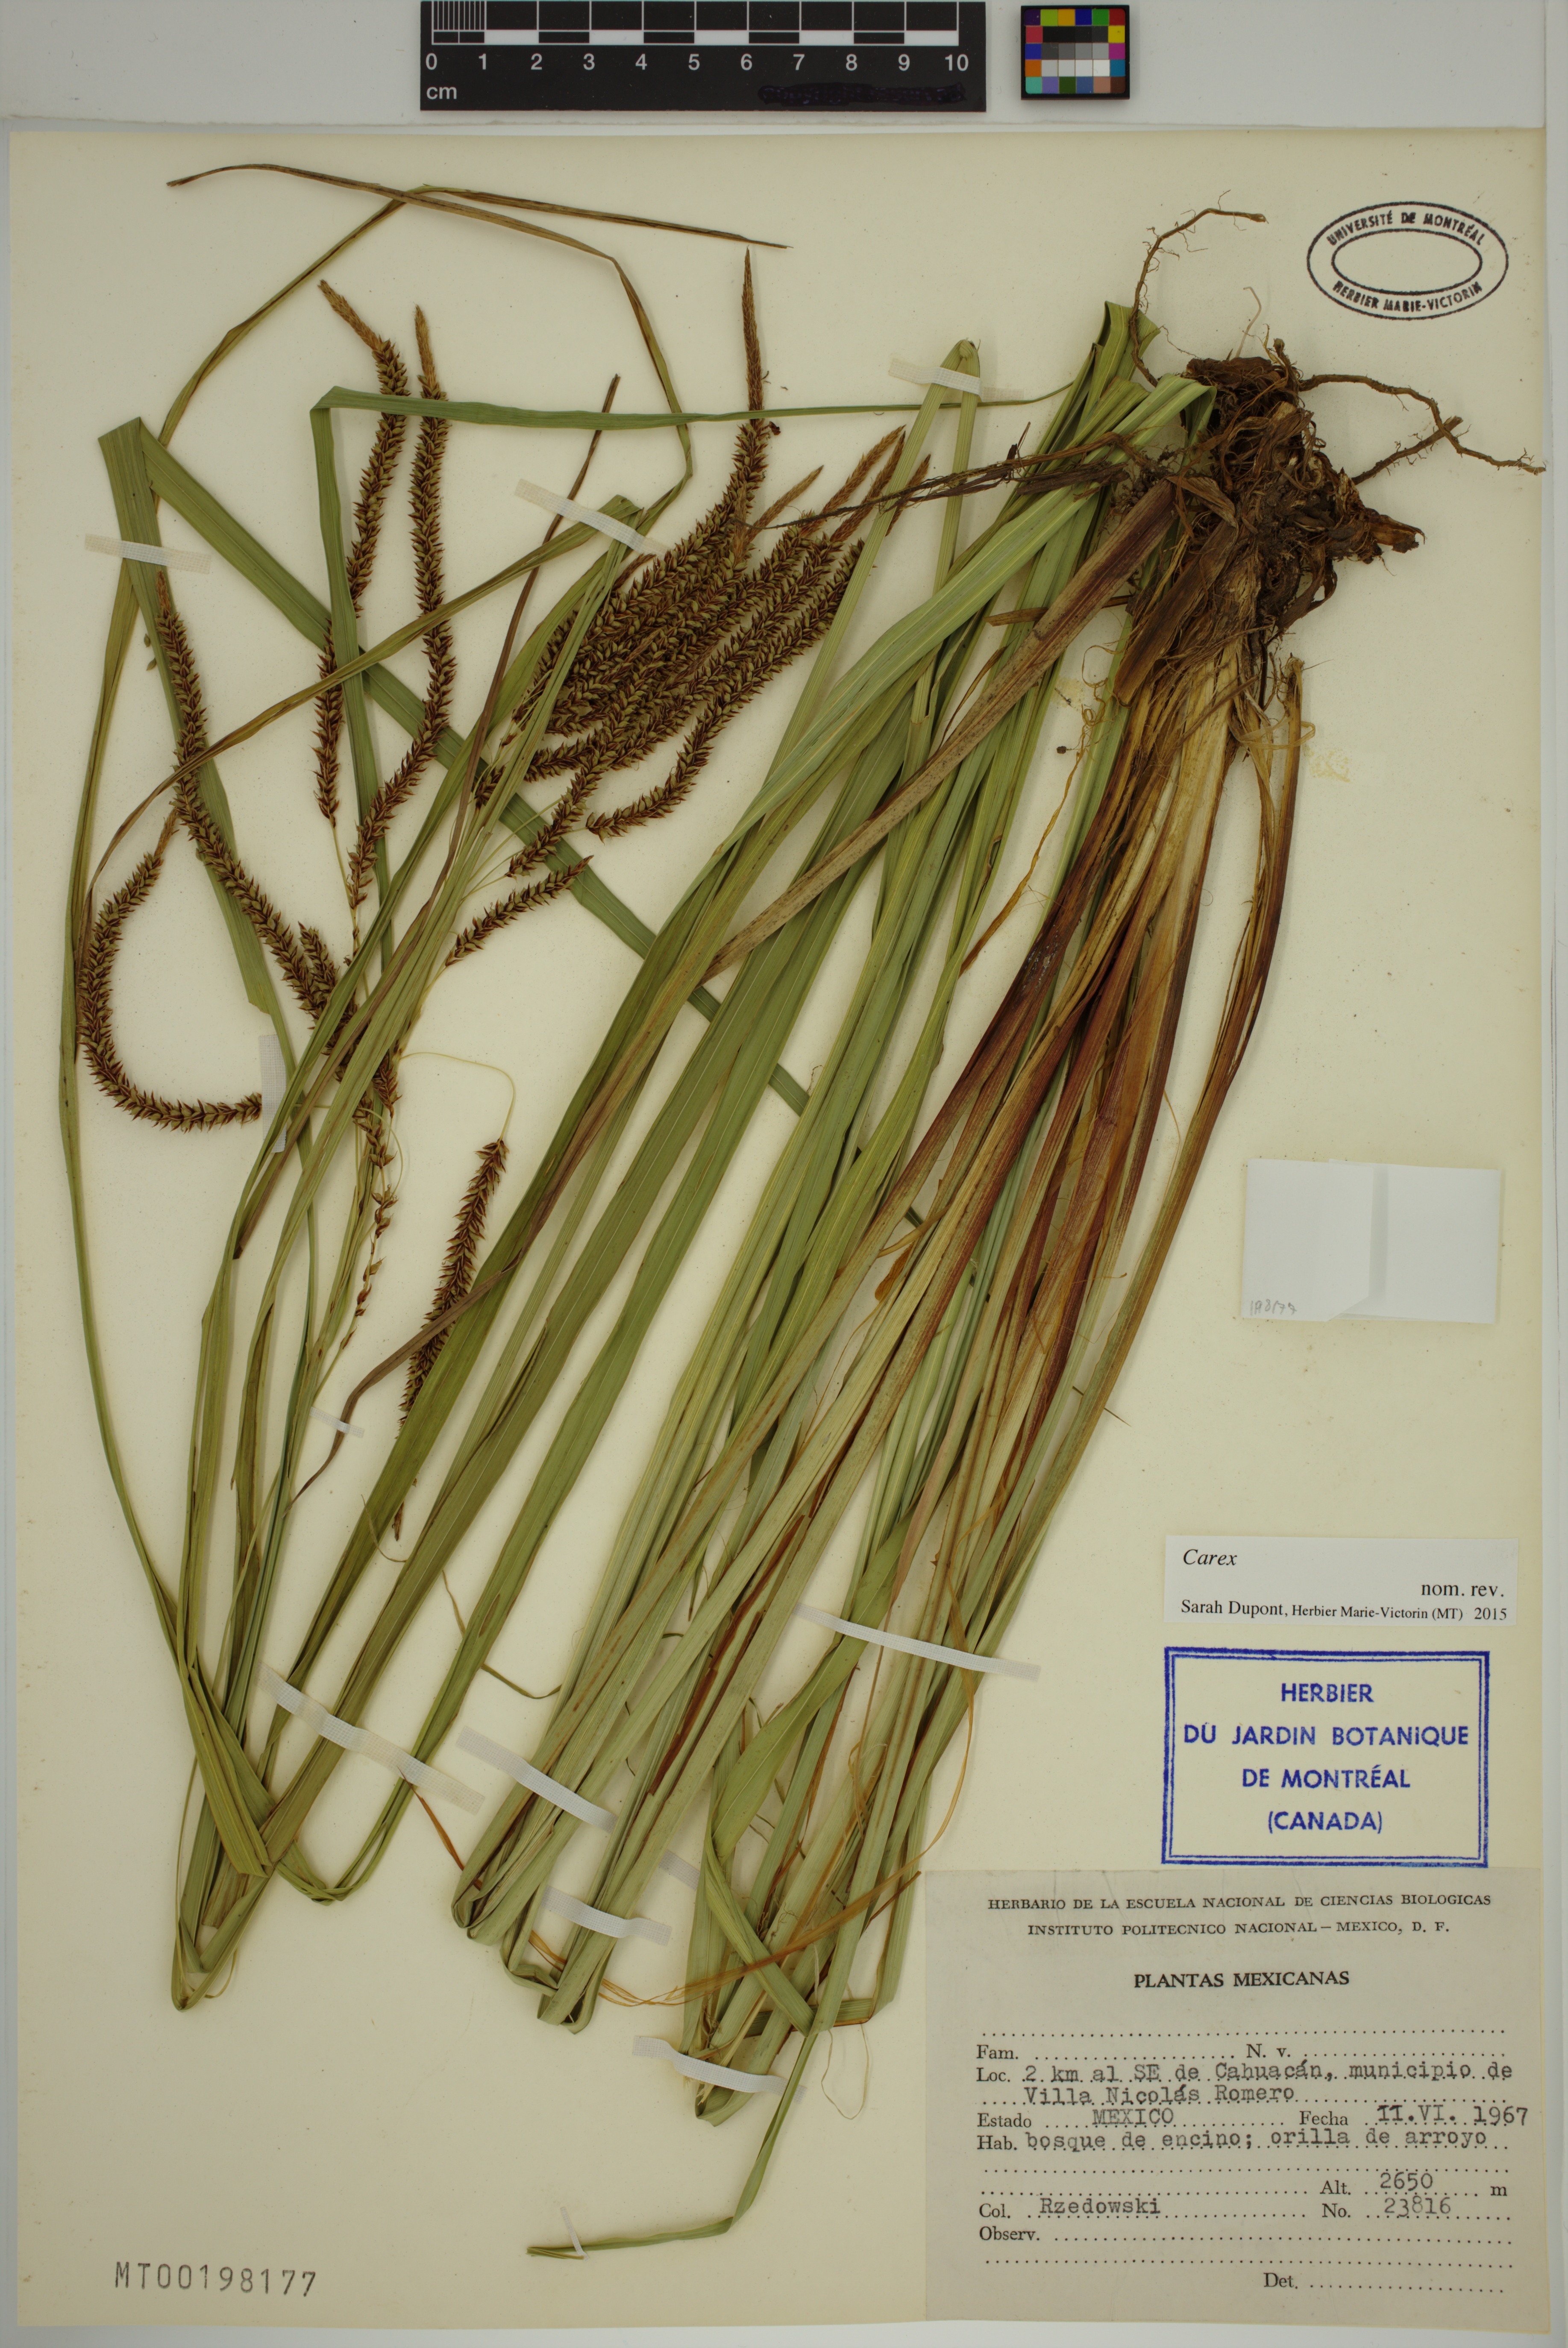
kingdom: Plantae
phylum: Tracheophyta
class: Liliopsida
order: Poales
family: Cyperaceae
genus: Carex
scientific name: Carex
